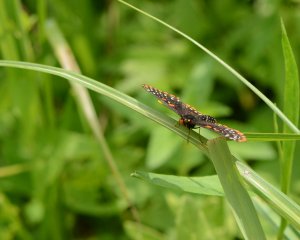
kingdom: Animalia
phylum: Arthropoda
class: Insecta
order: Lepidoptera
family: Nymphalidae
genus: Euphydryas
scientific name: Euphydryas phaeton
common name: Baltimore Checkerspot
